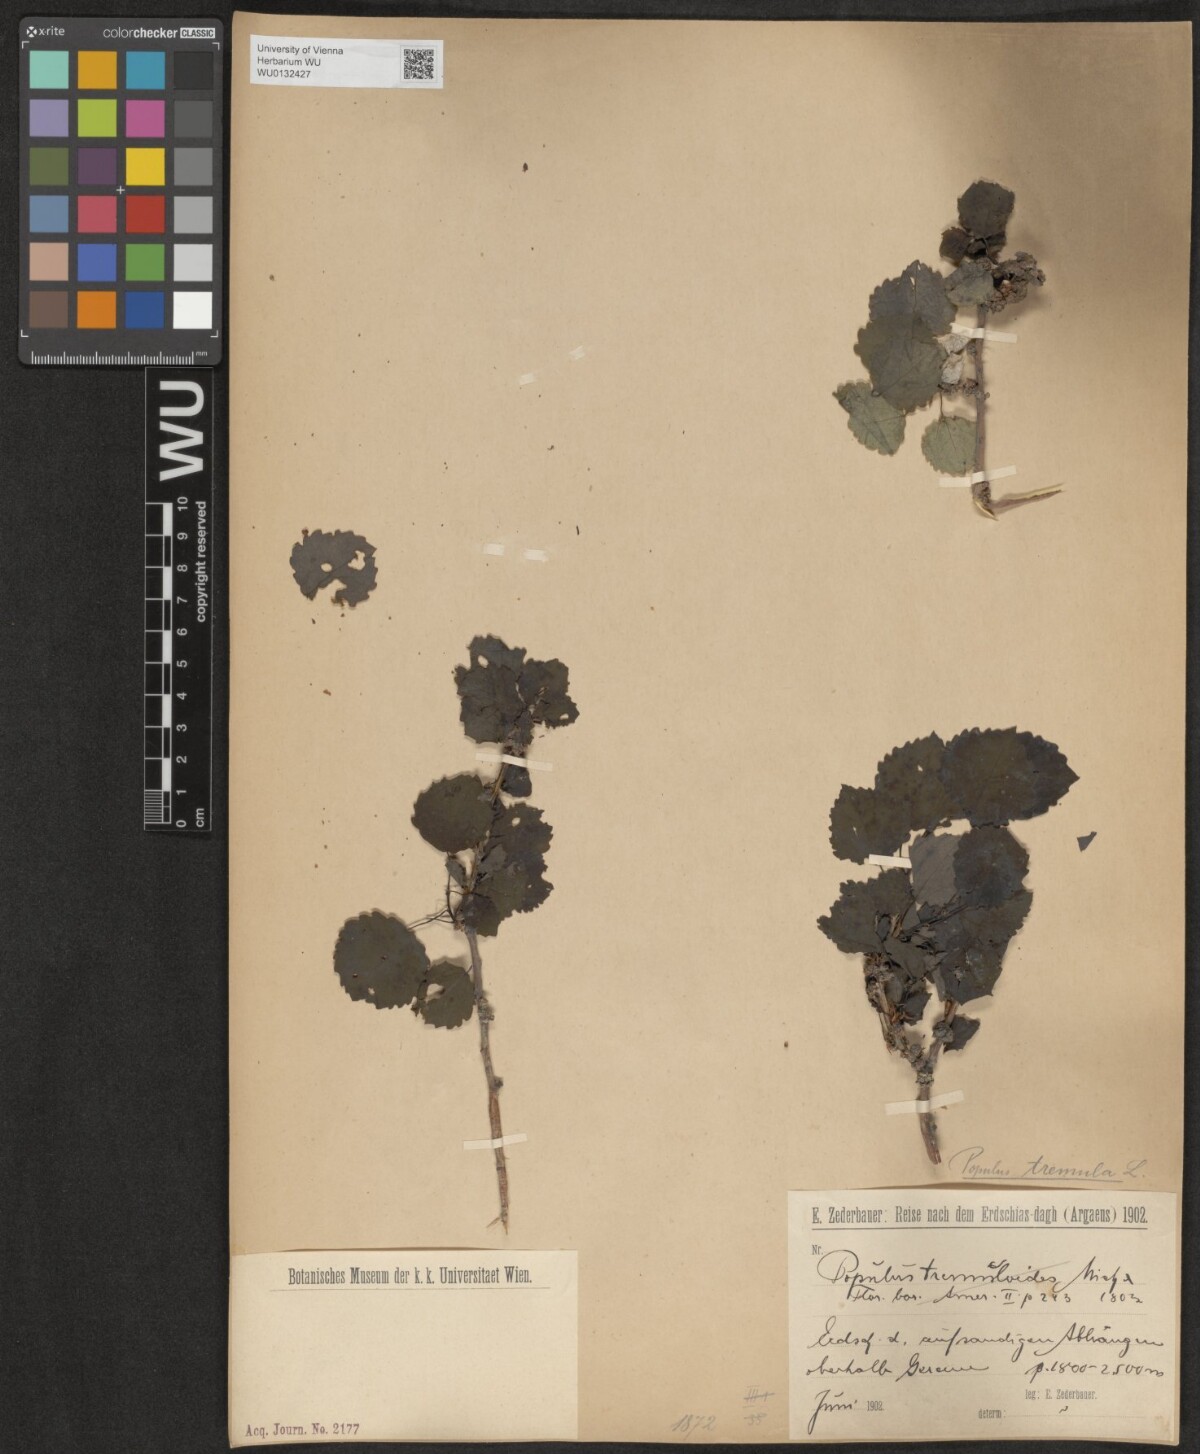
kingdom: Plantae
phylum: Tracheophyta
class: Magnoliopsida
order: Malpighiales
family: Salicaceae
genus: Populus
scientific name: Populus tremula
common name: European aspen
